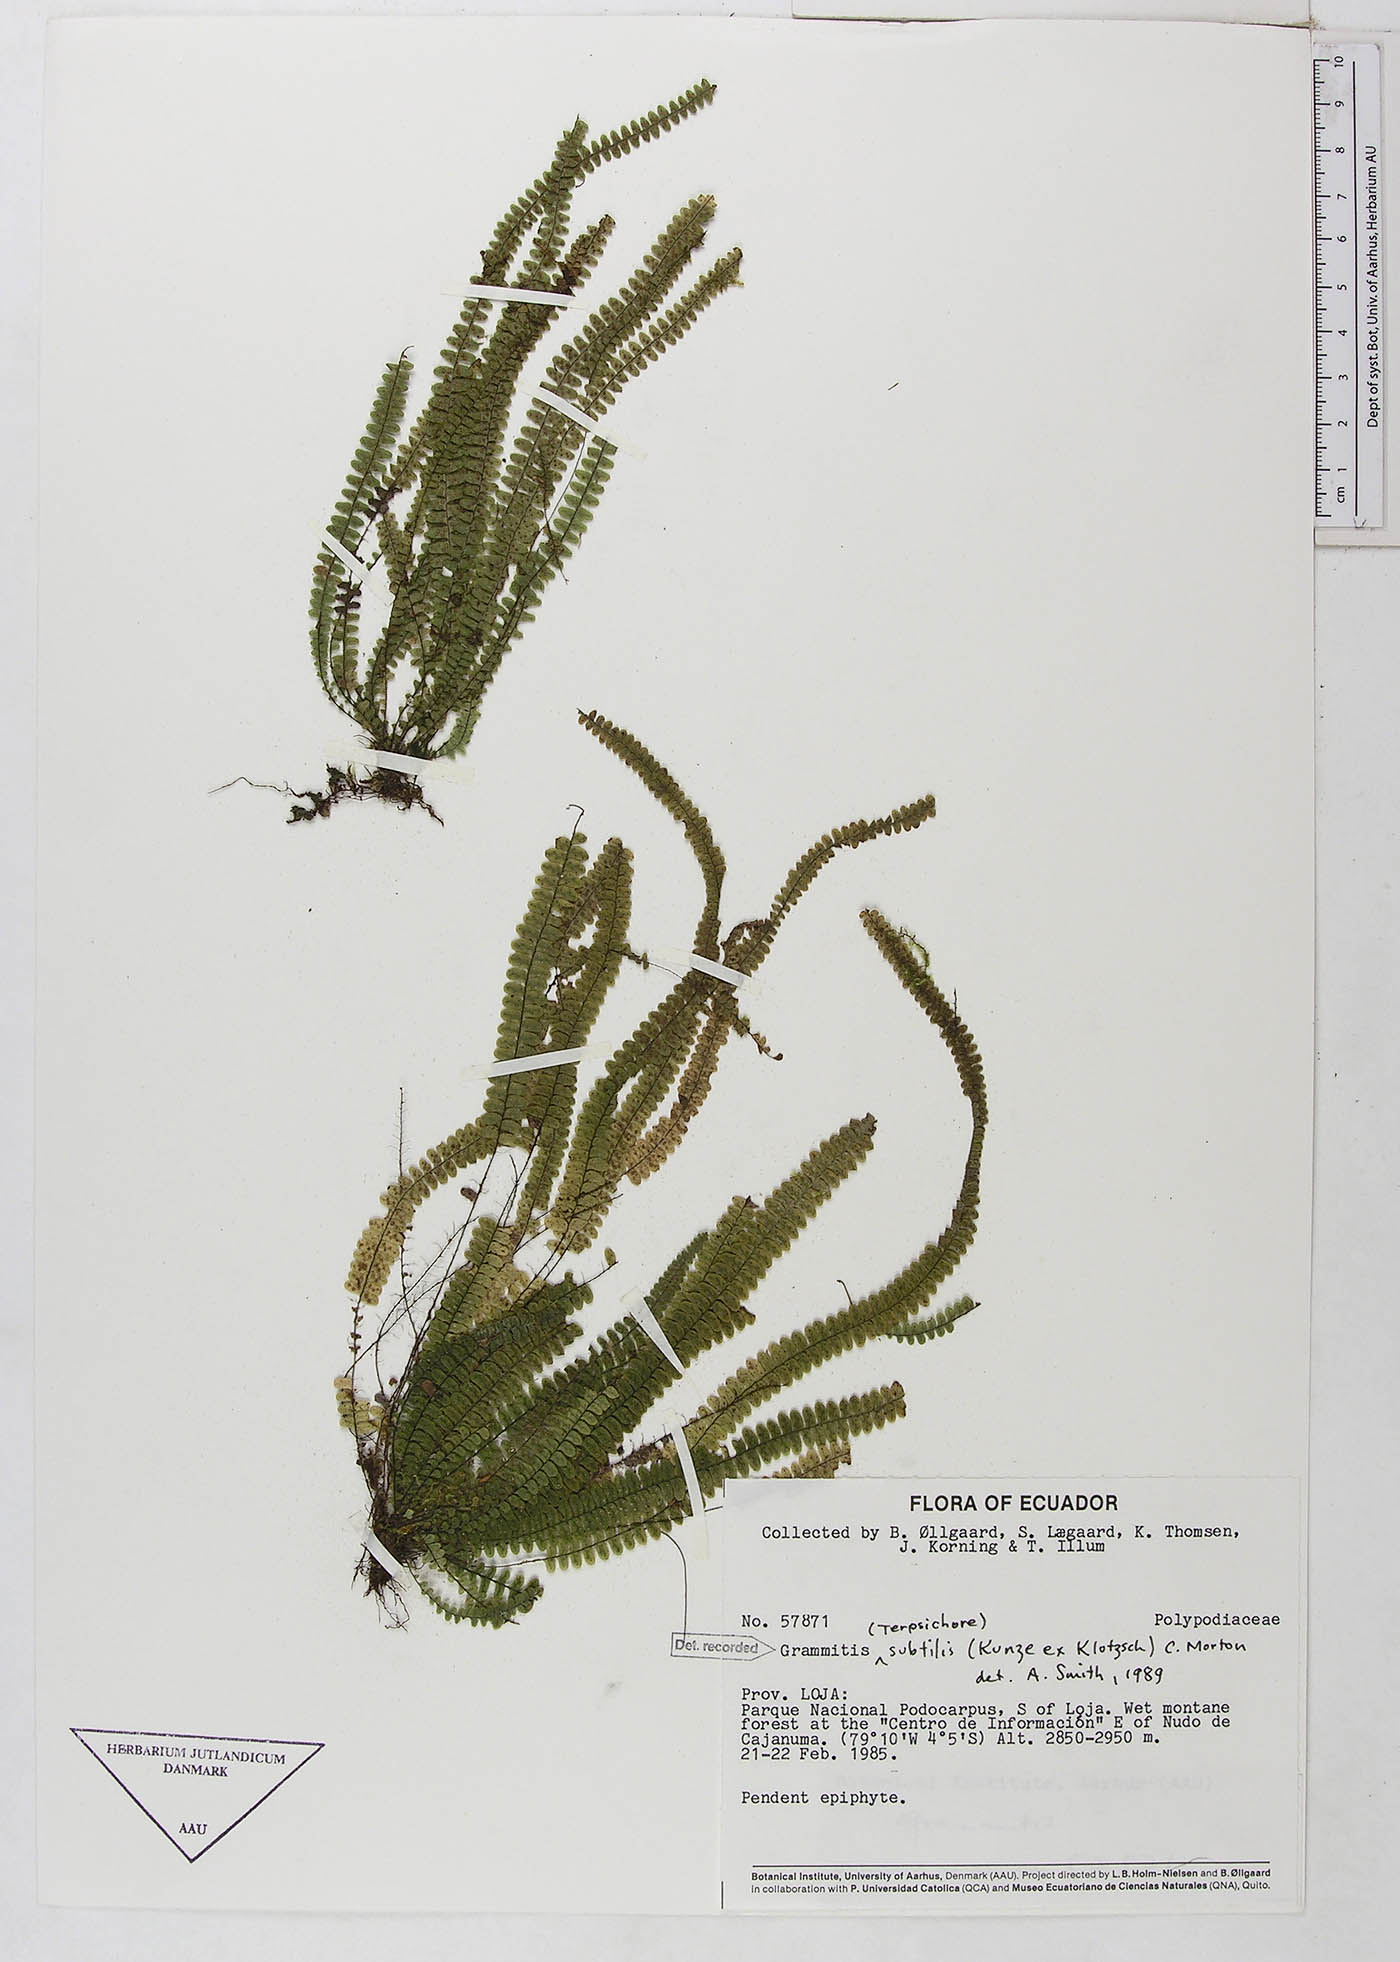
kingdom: Plantae
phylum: Tracheophyta
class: Polypodiopsida
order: Polypodiales
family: Polypodiaceae
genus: Mycopteris
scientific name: Mycopteris subtilis
